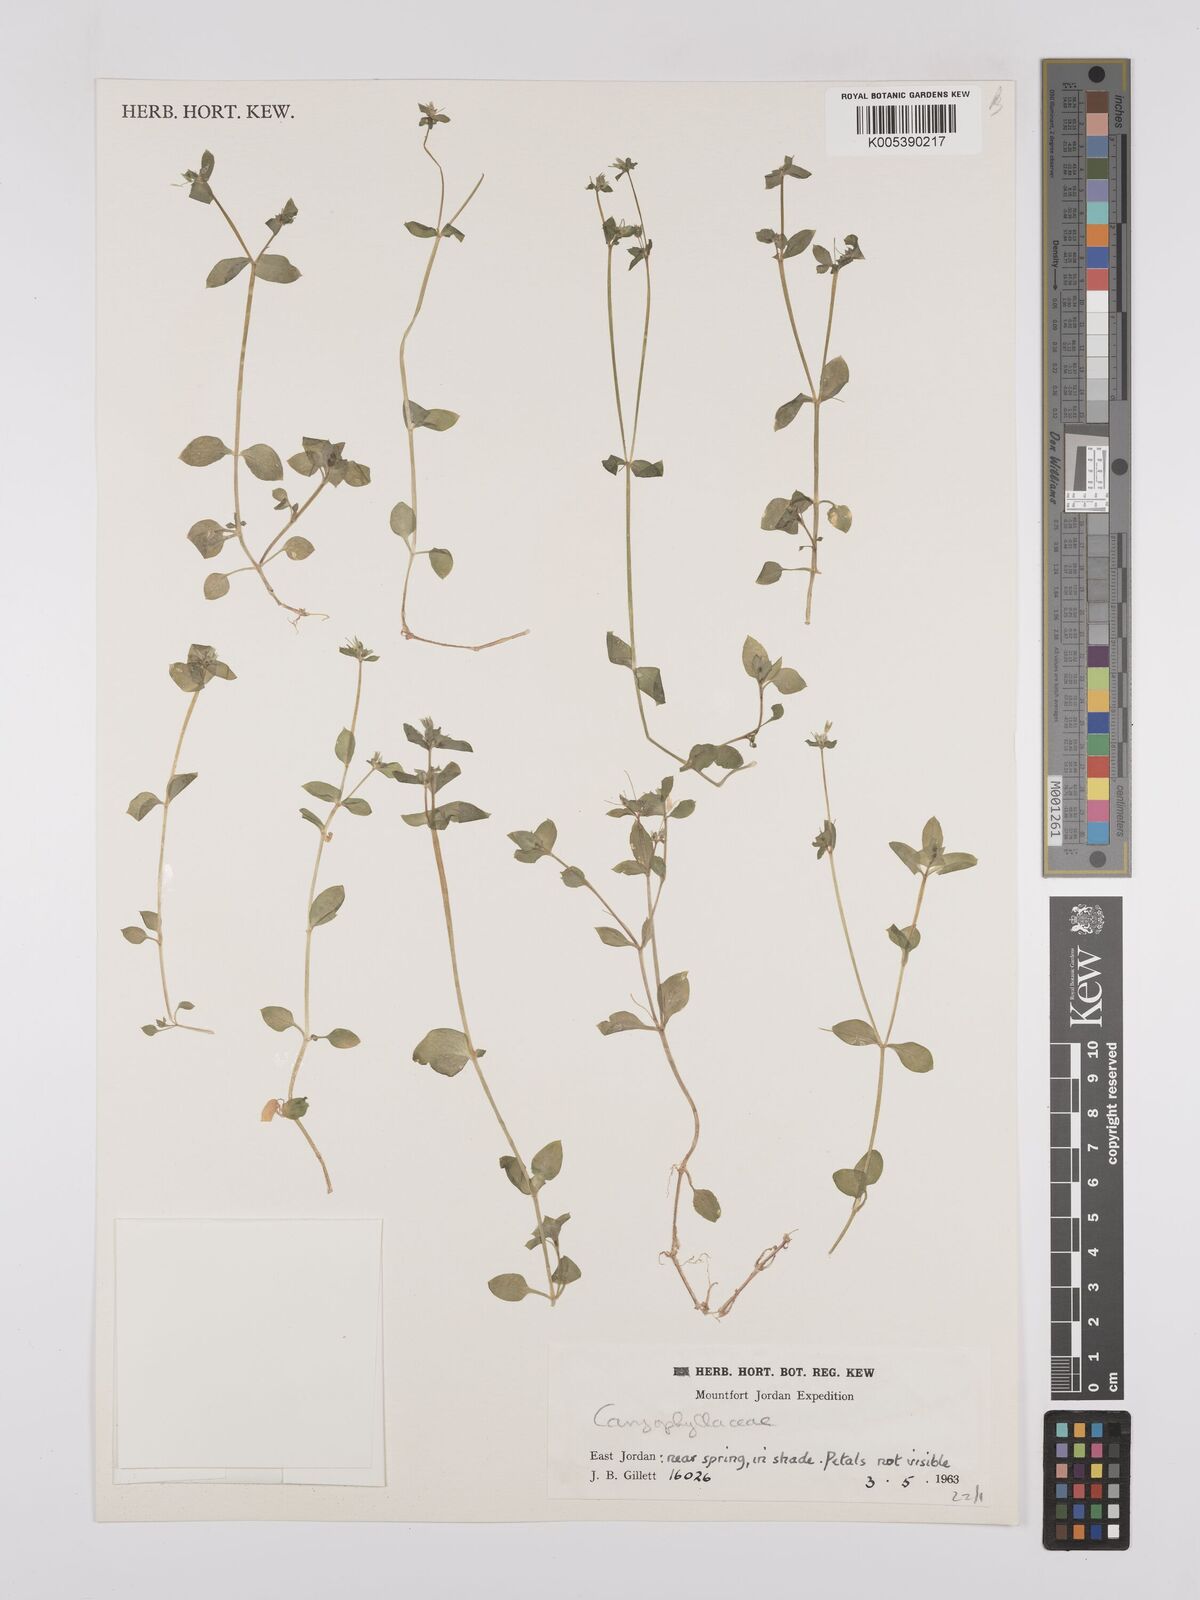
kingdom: Plantae
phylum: Tracheophyta
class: Magnoliopsida
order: Caryophyllales
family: Caryophyllaceae
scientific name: Caryophyllaceae
